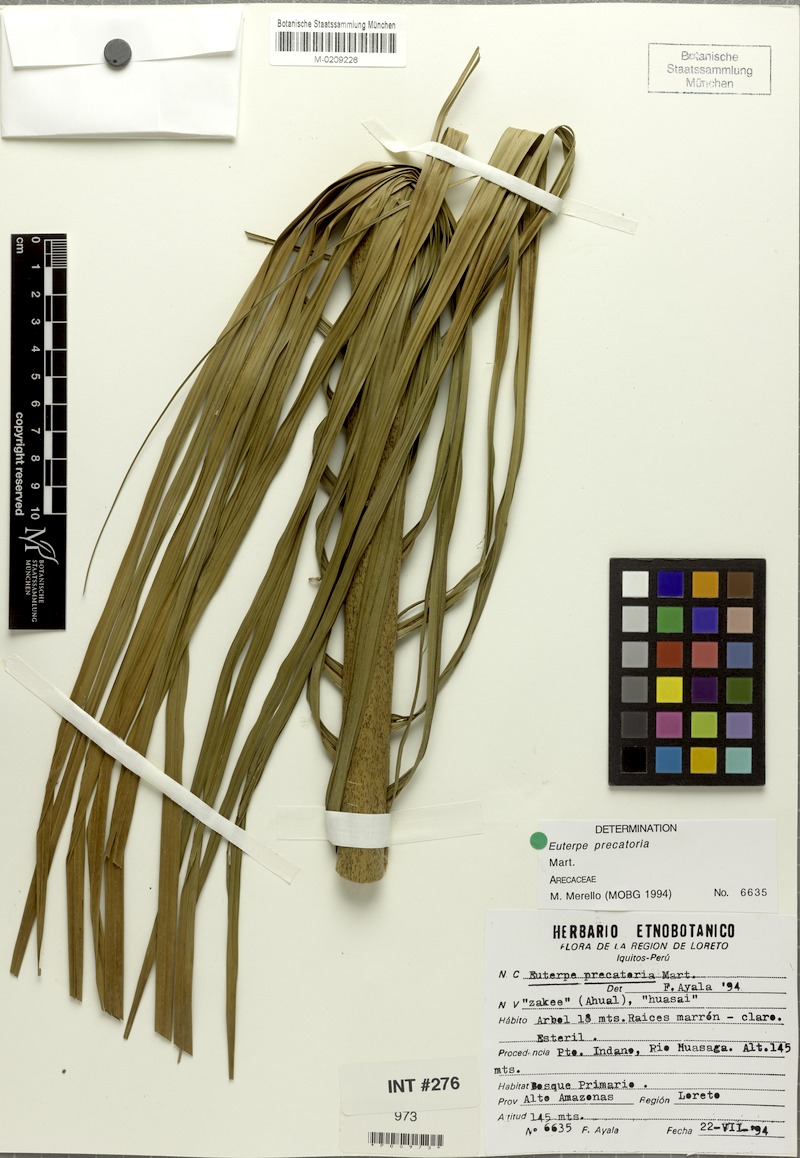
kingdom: Plantae
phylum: Tracheophyta
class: Liliopsida
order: Arecales
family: Arecaceae
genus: Euterpe
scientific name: Euterpe precatoria
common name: Mountain-cabbage
